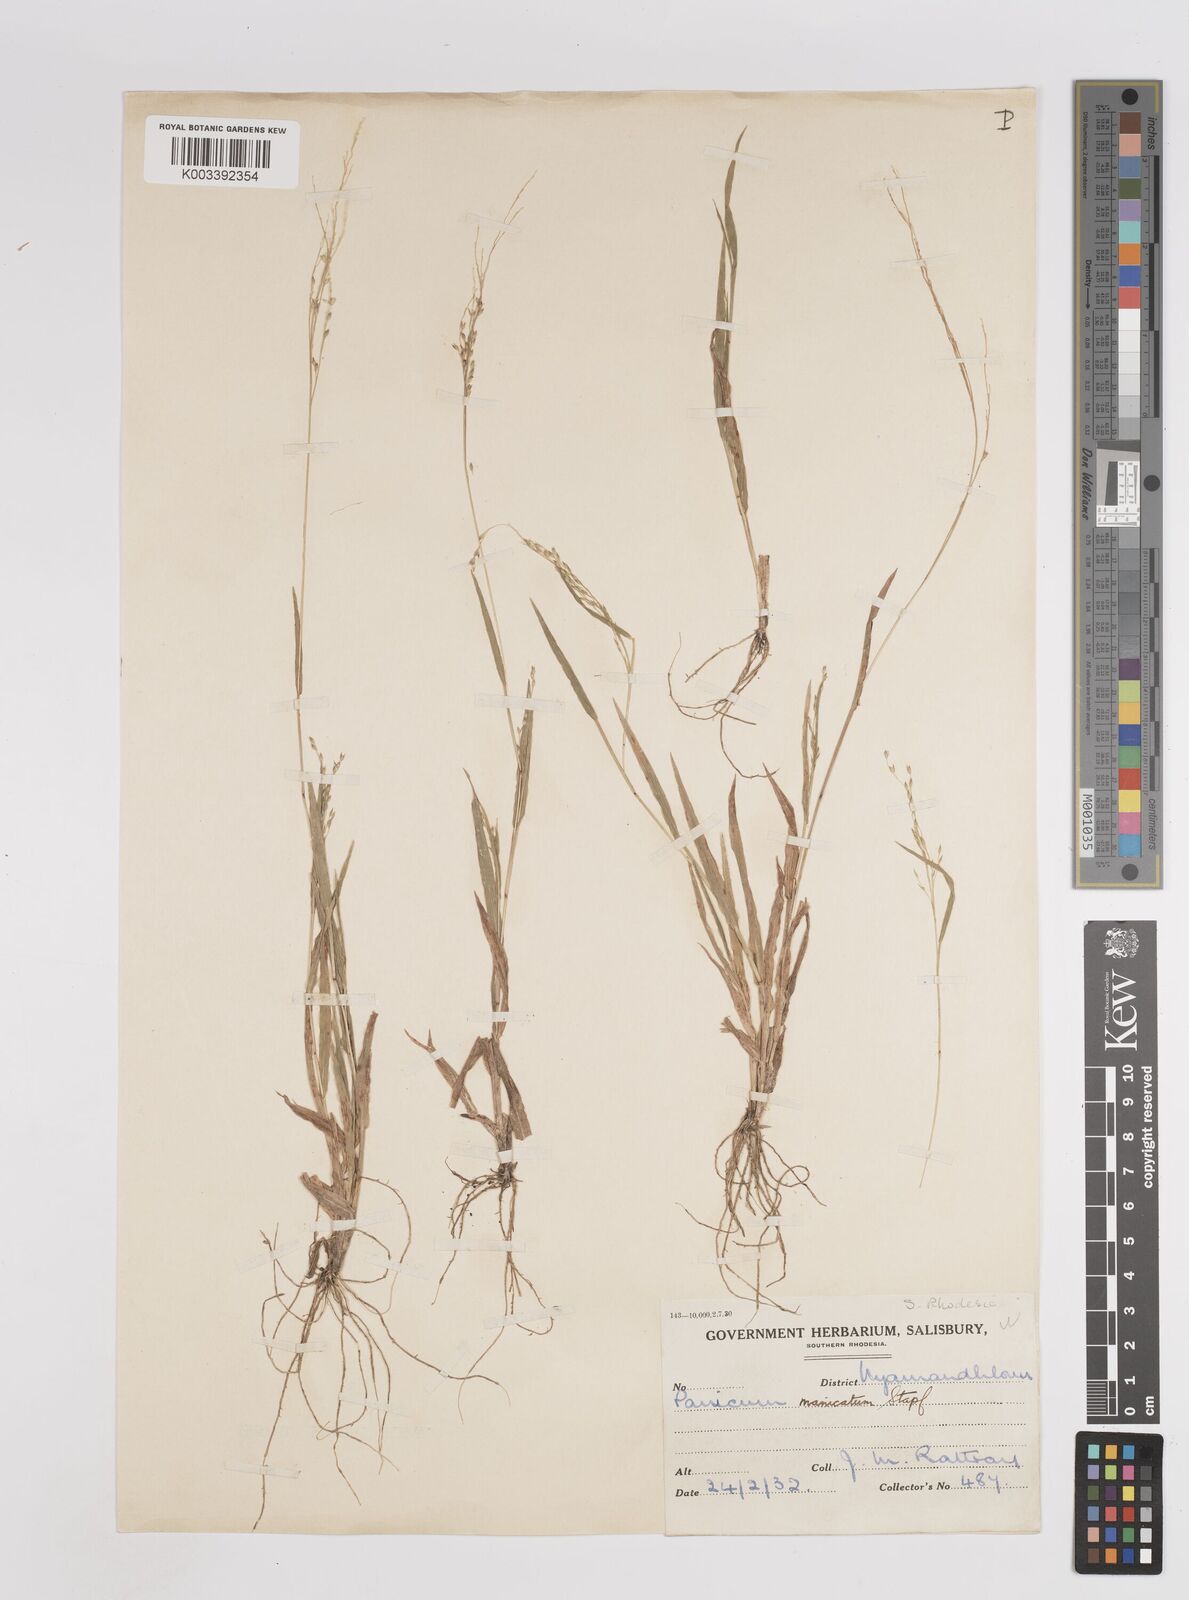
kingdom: Plantae
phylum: Tracheophyta
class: Liliopsida
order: Poales
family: Poaceae
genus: Panicum
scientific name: Panicum zambesiense
